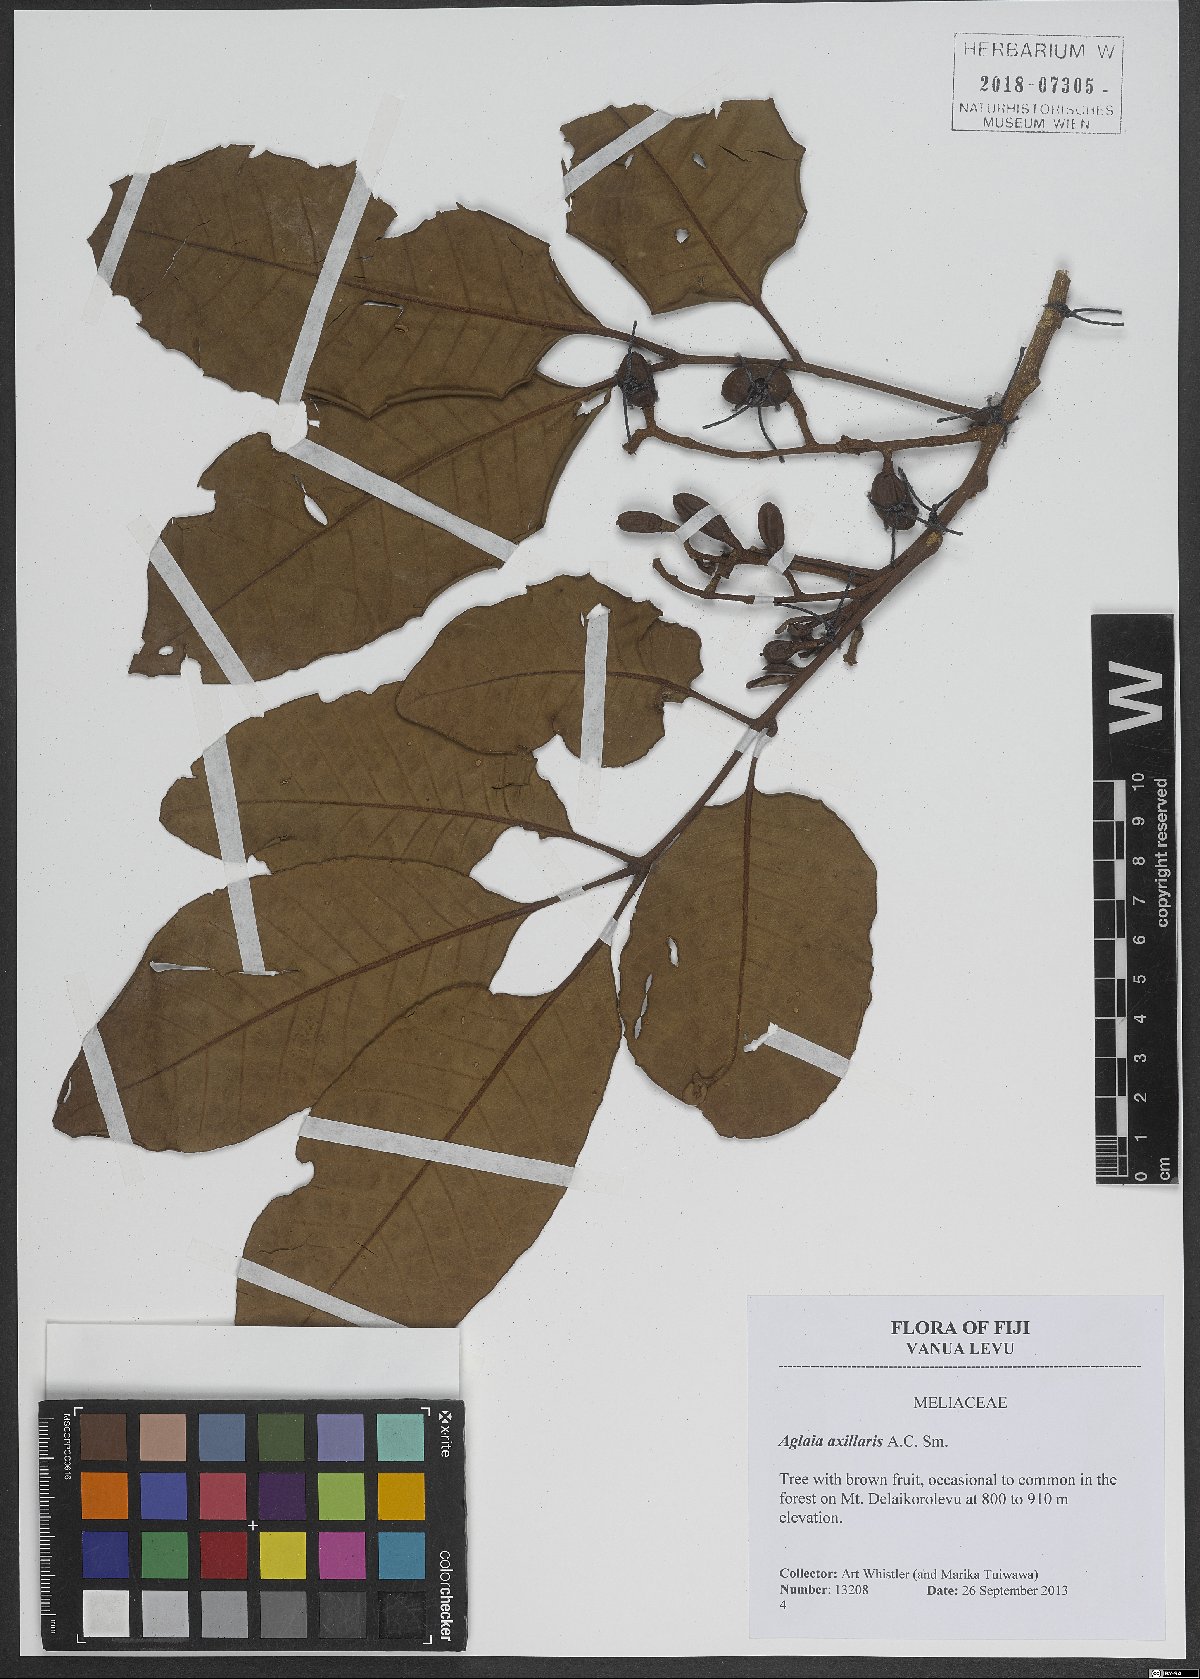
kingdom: Plantae
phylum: Tracheophyta
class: Magnoliopsida
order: Sapindales
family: Meliaceae
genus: Aglaia
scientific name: Aglaia vitiensis
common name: Lindiyango
